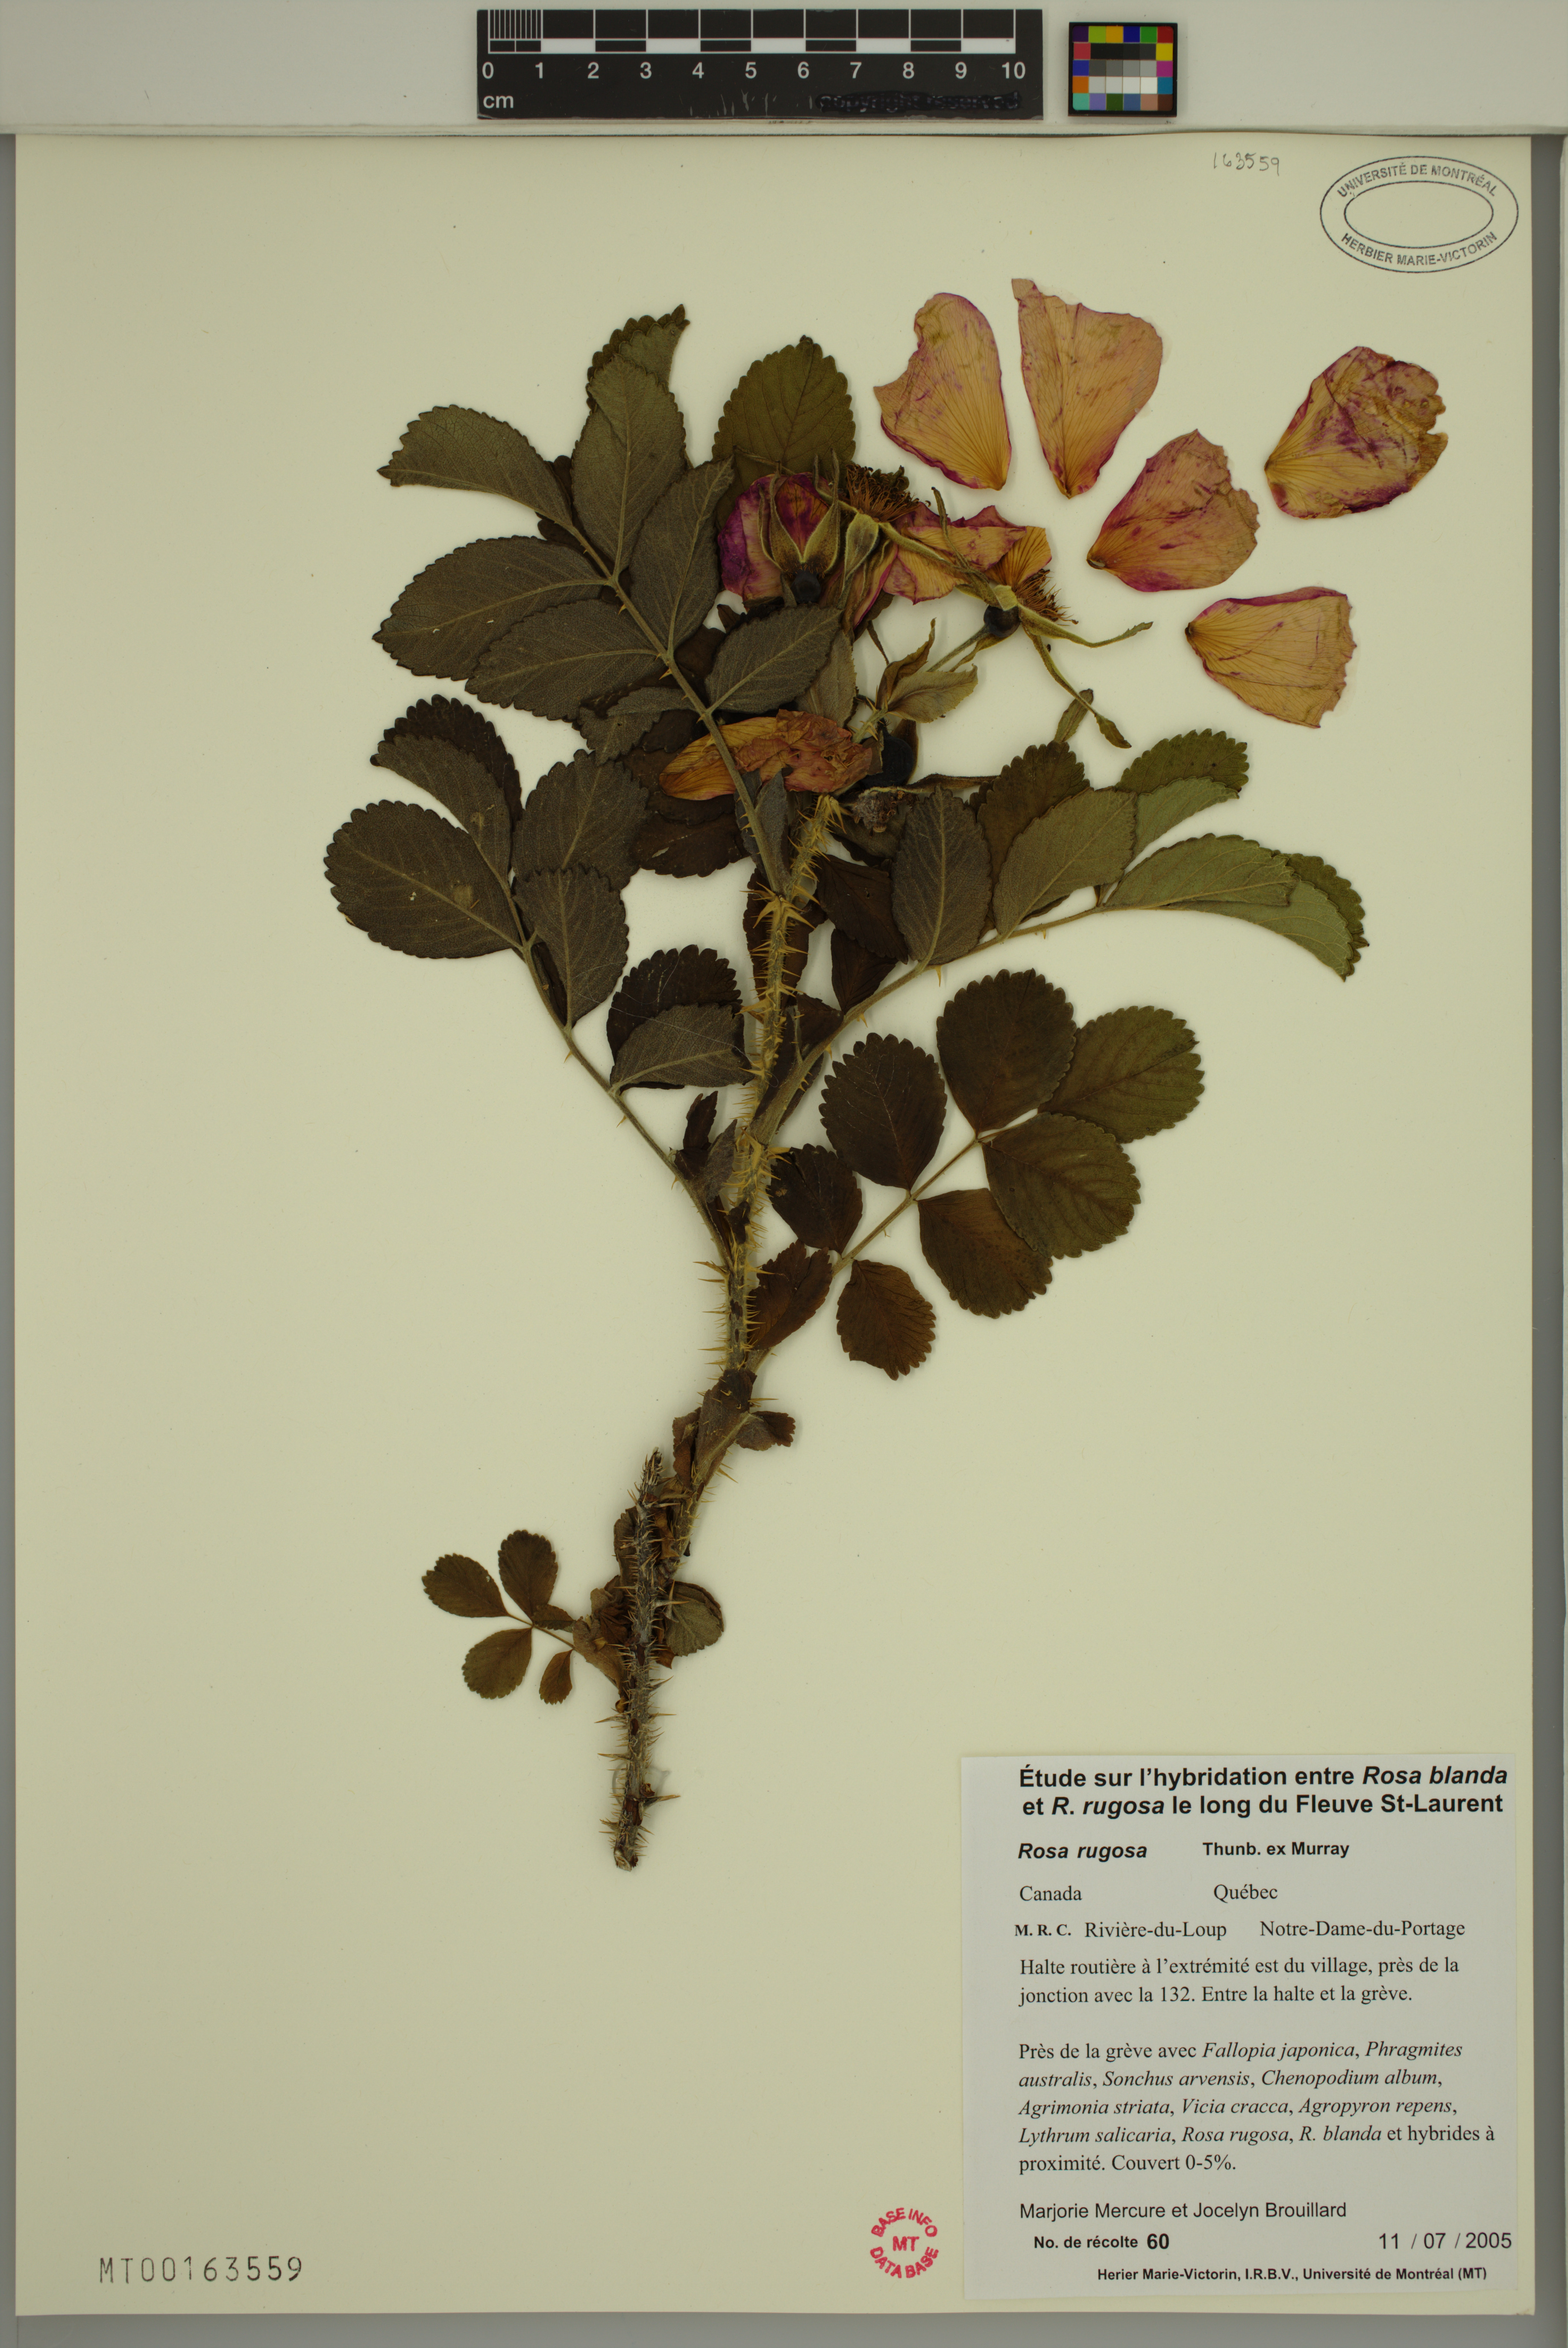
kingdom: Plantae
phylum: Tracheophyta
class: Magnoliopsida
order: Rosales
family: Rosaceae
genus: Rosa
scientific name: Rosa rugosa
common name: Japanese rose
